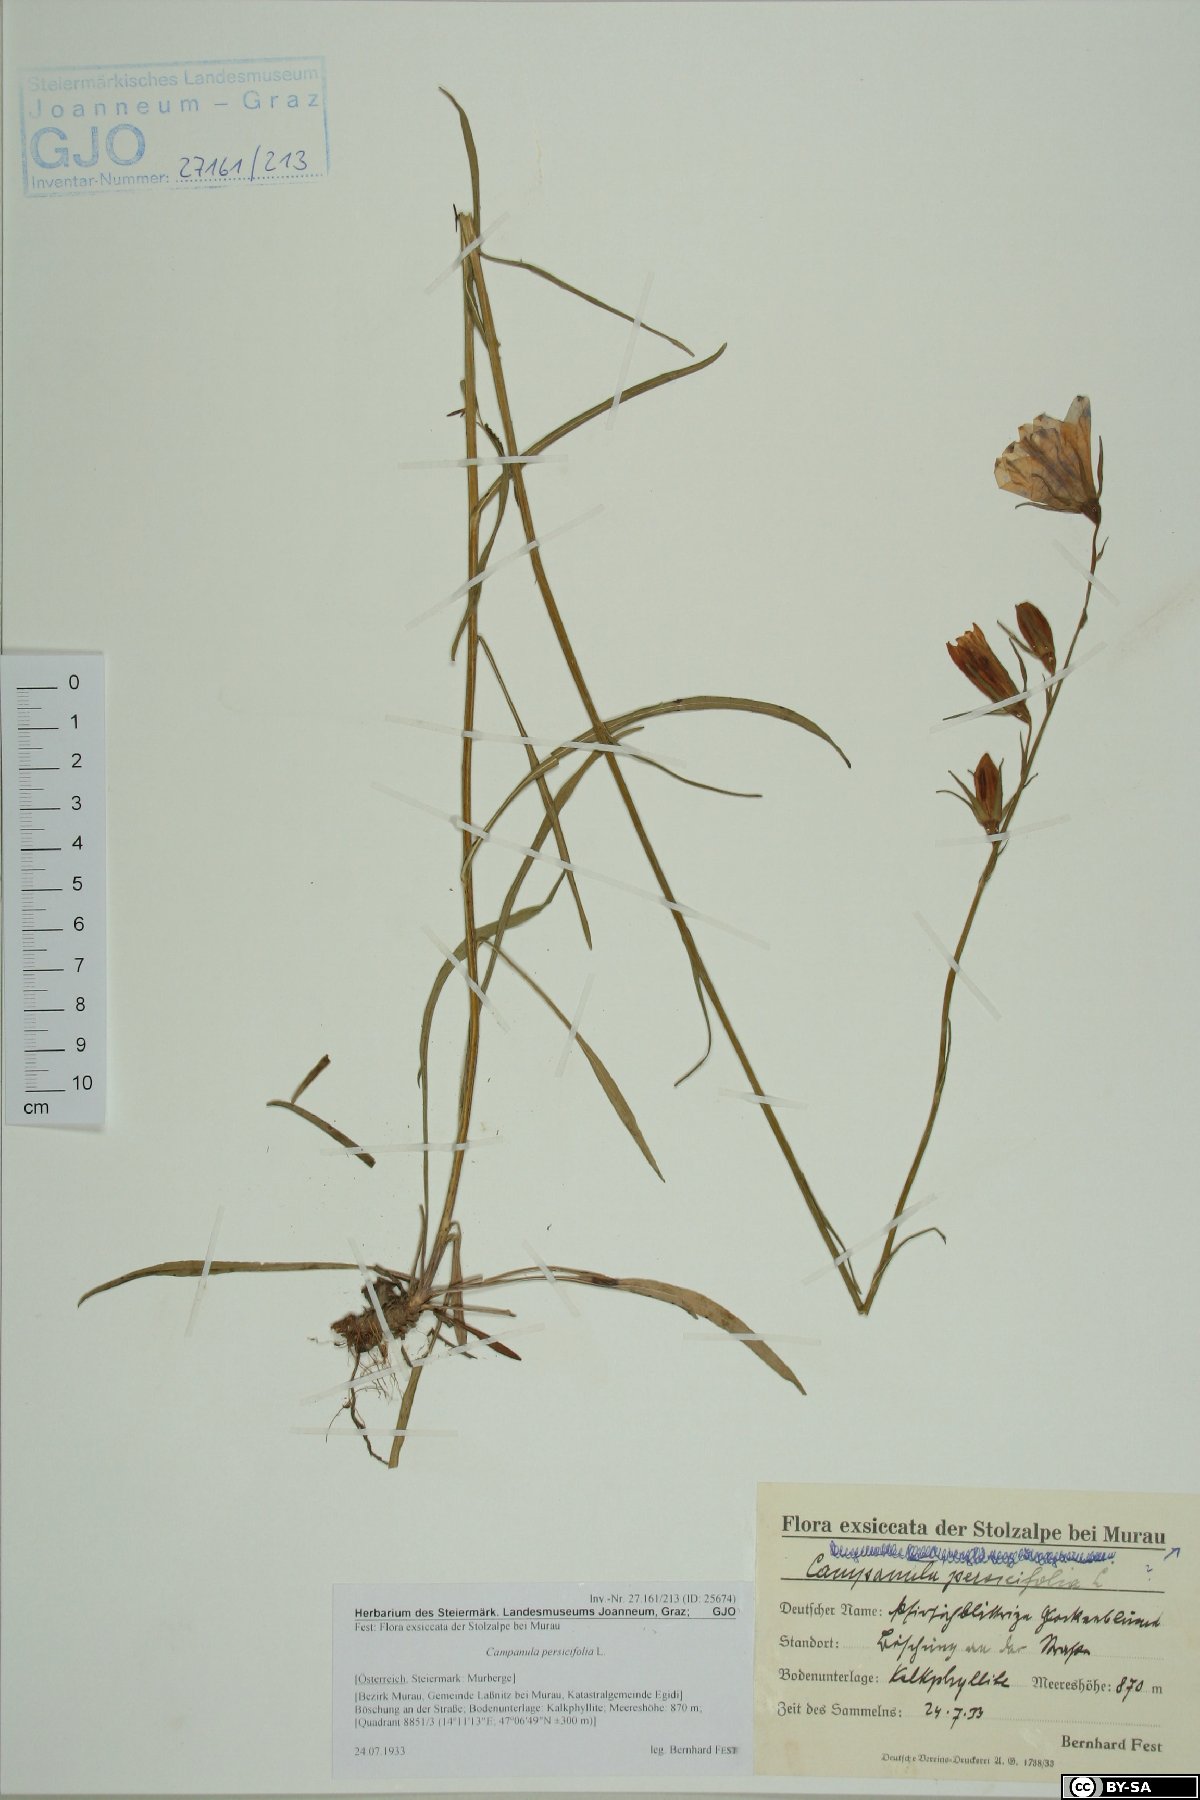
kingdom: Plantae
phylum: Tracheophyta
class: Magnoliopsida
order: Asterales
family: Campanulaceae
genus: Campanula
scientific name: Campanula persicifolia
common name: Peach-leaved bellflower
